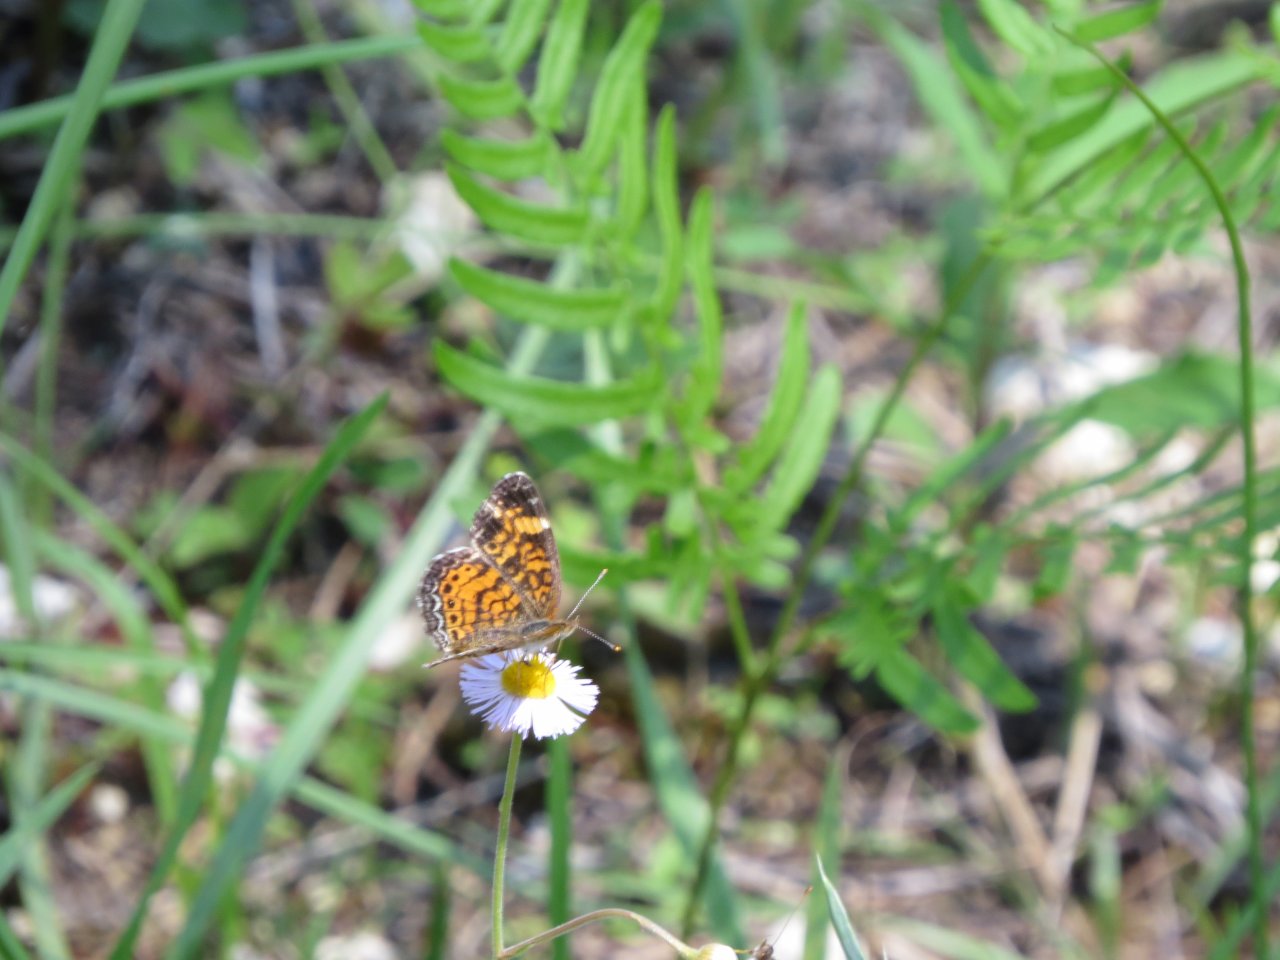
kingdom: Animalia
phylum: Arthropoda
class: Insecta
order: Lepidoptera
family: Nymphalidae
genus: Phyciodes
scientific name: Phyciodes tharos
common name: Pearl Crescent
